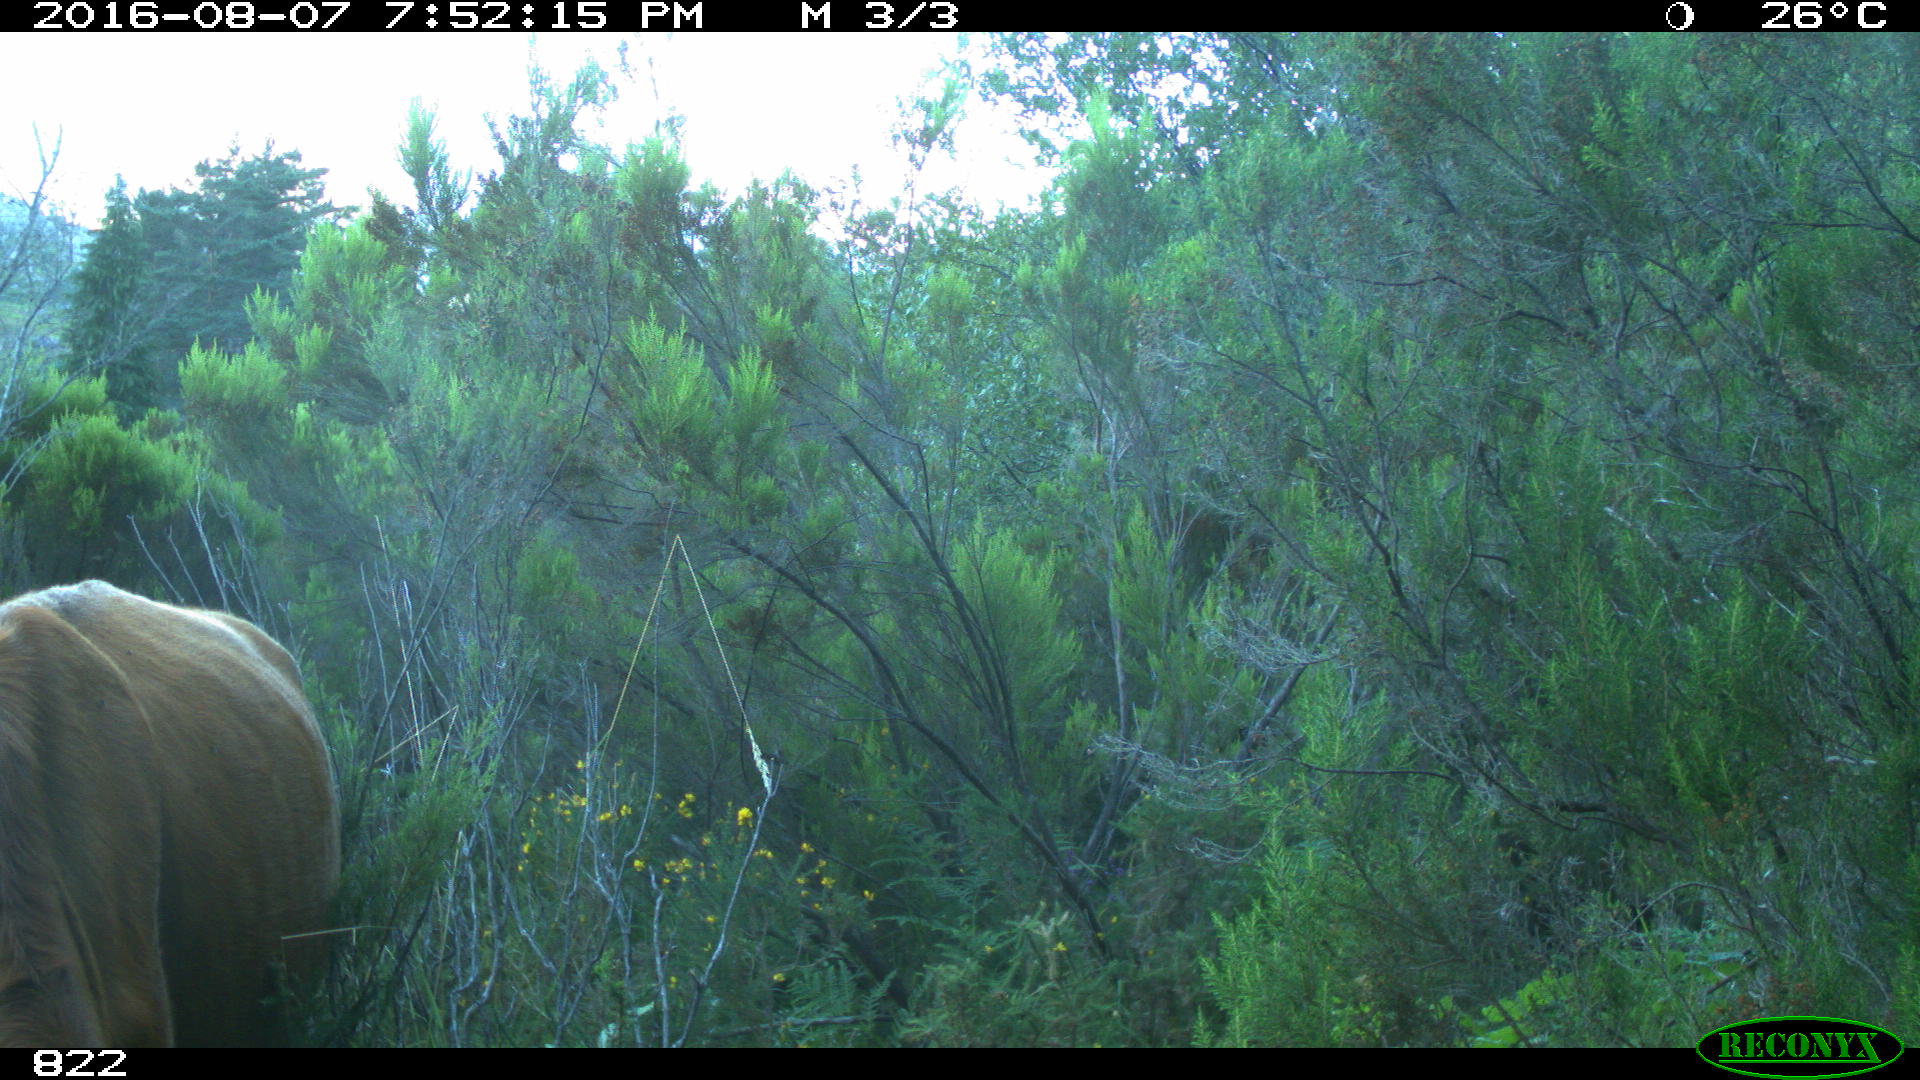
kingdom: Animalia
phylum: Chordata
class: Mammalia
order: Artiodactyla
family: Bovidae
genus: Bos
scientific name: Bos taurus
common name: Domesticated cattle
